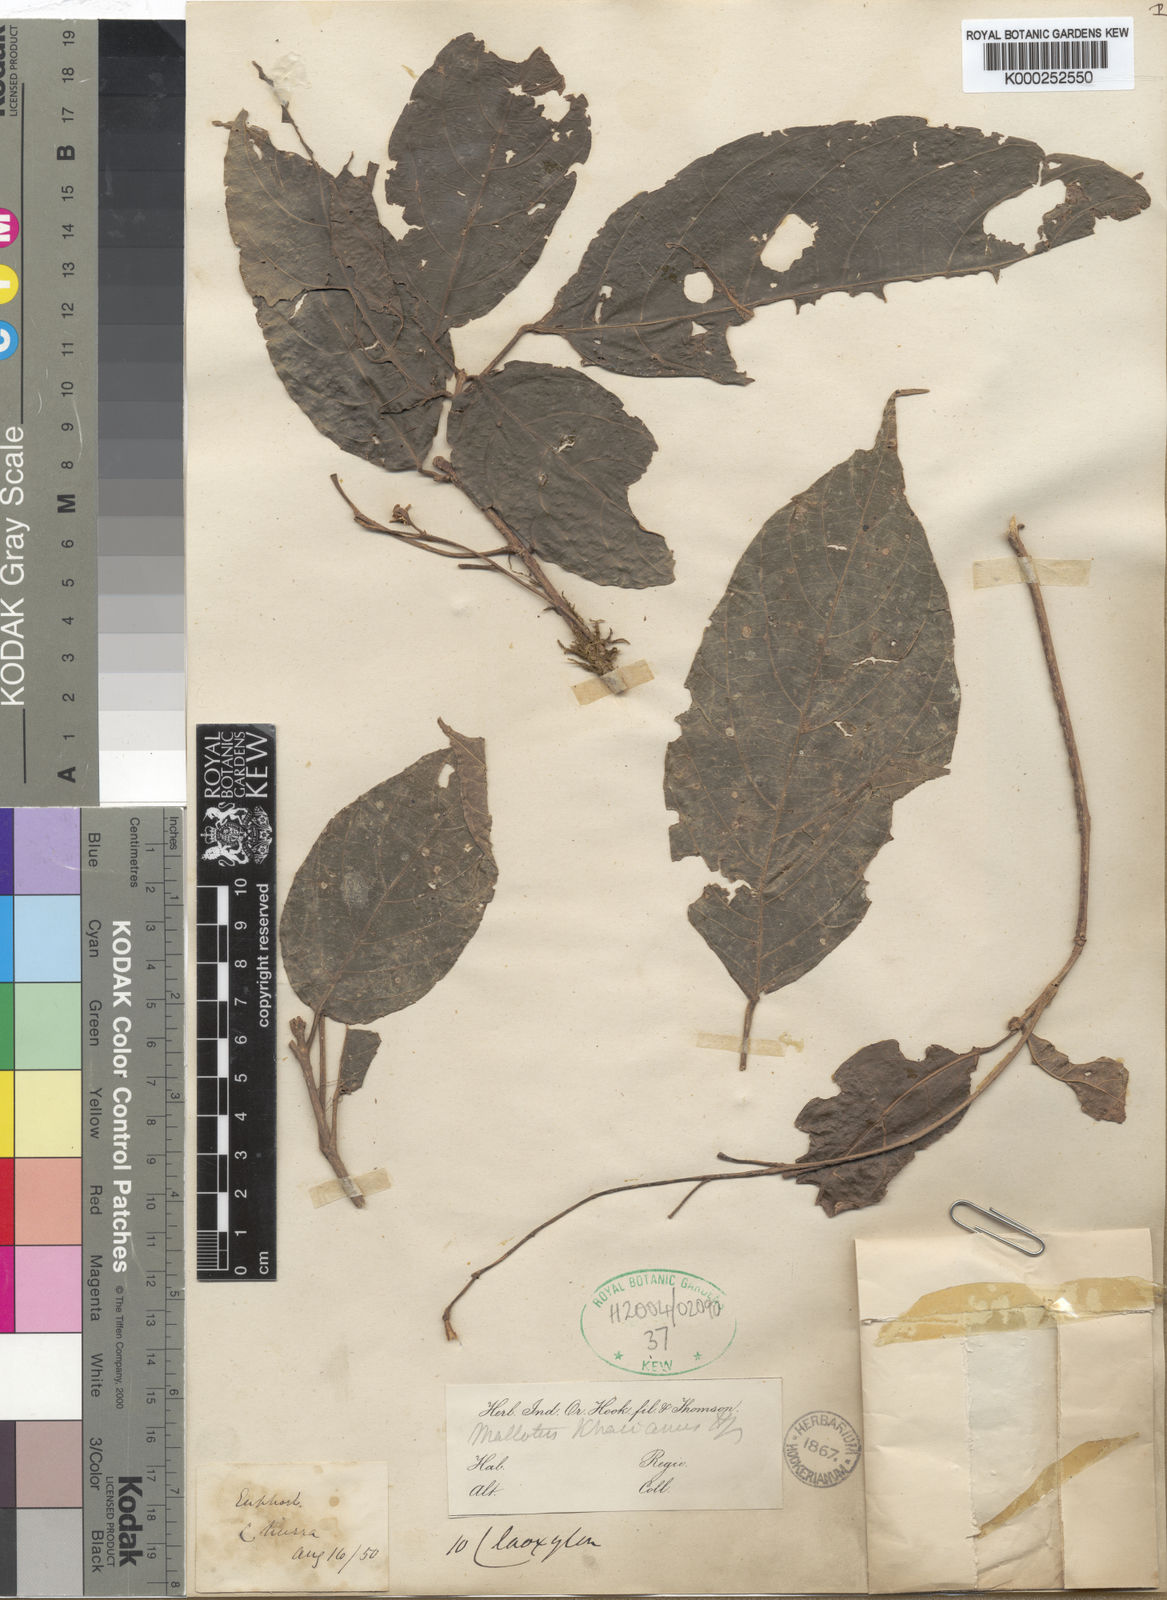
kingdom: Plantae
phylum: Tracheophyta
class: Magnoliopsida
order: Malpighiales
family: Euphorbiaceae
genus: Mallotus
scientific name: Mallotus khasianus
